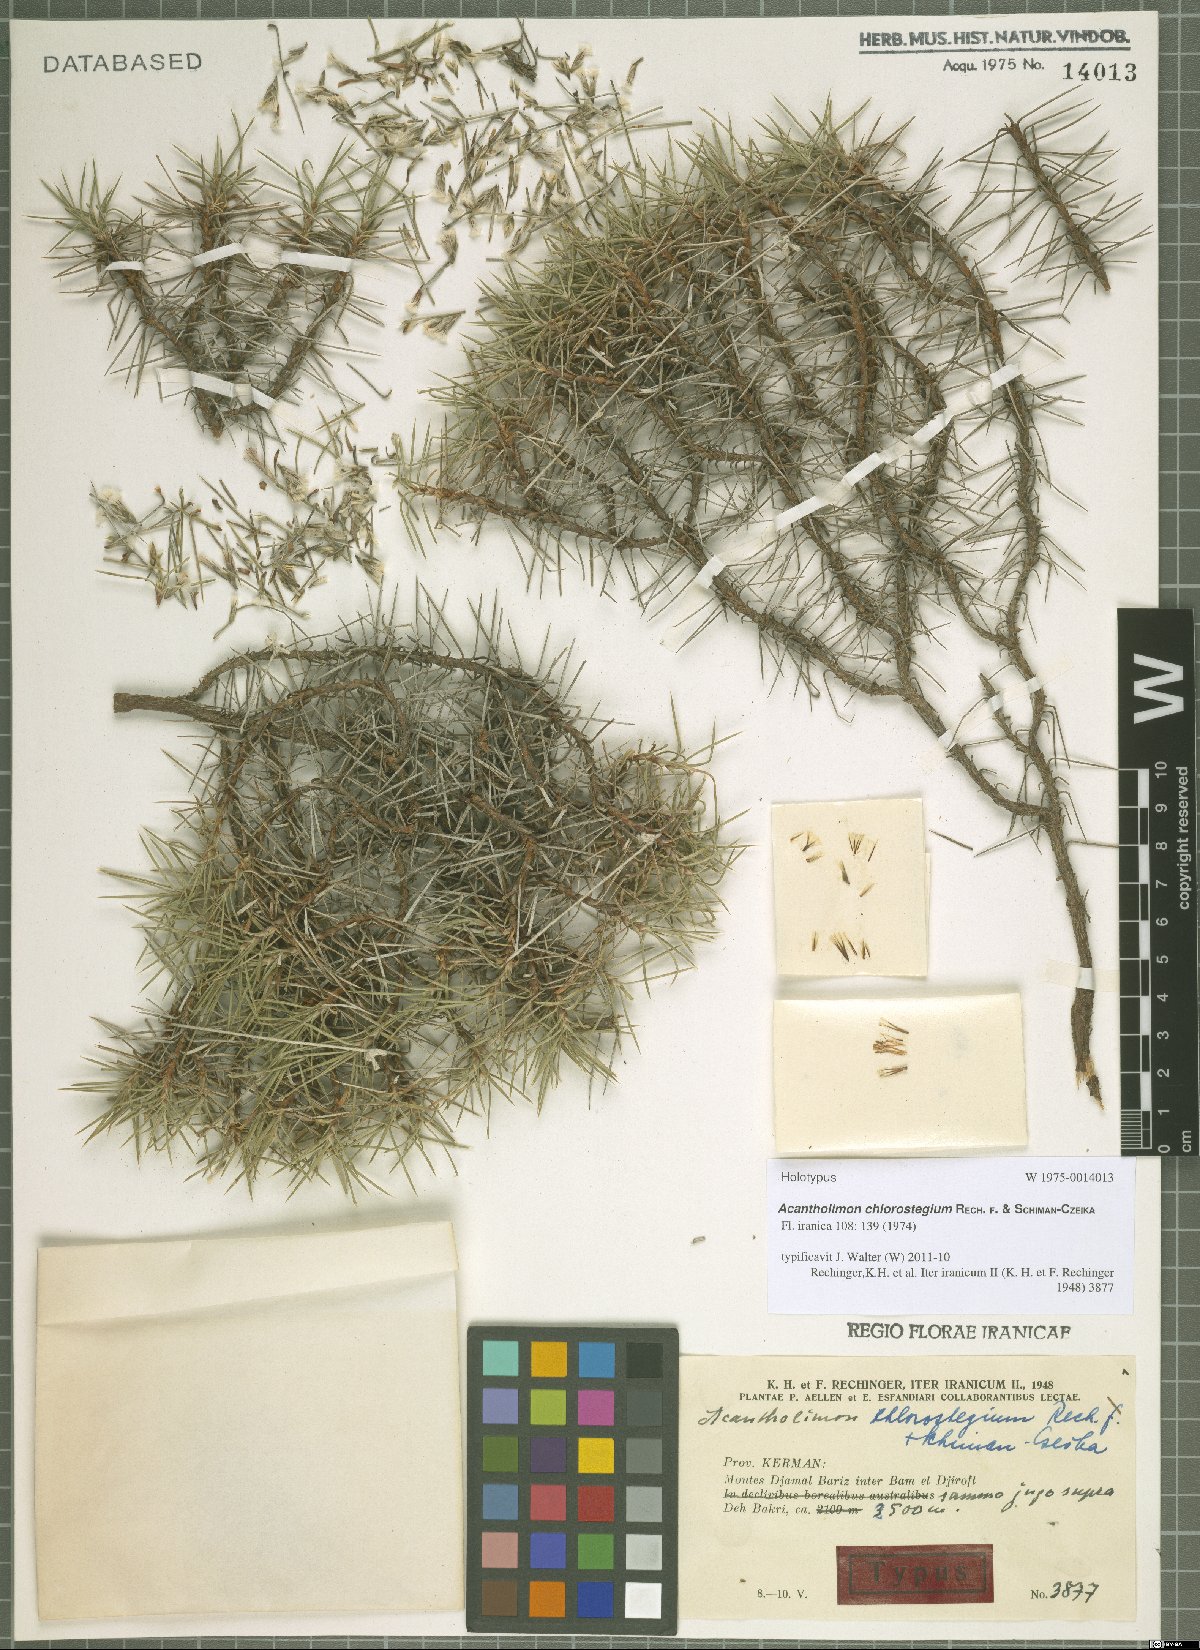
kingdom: Plantae
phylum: Tracheophyta
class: Magnoliopsida
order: Caryophyllales
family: Plumbaginaceae
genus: Acantholimon
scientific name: Acantholimon chlorostegium
